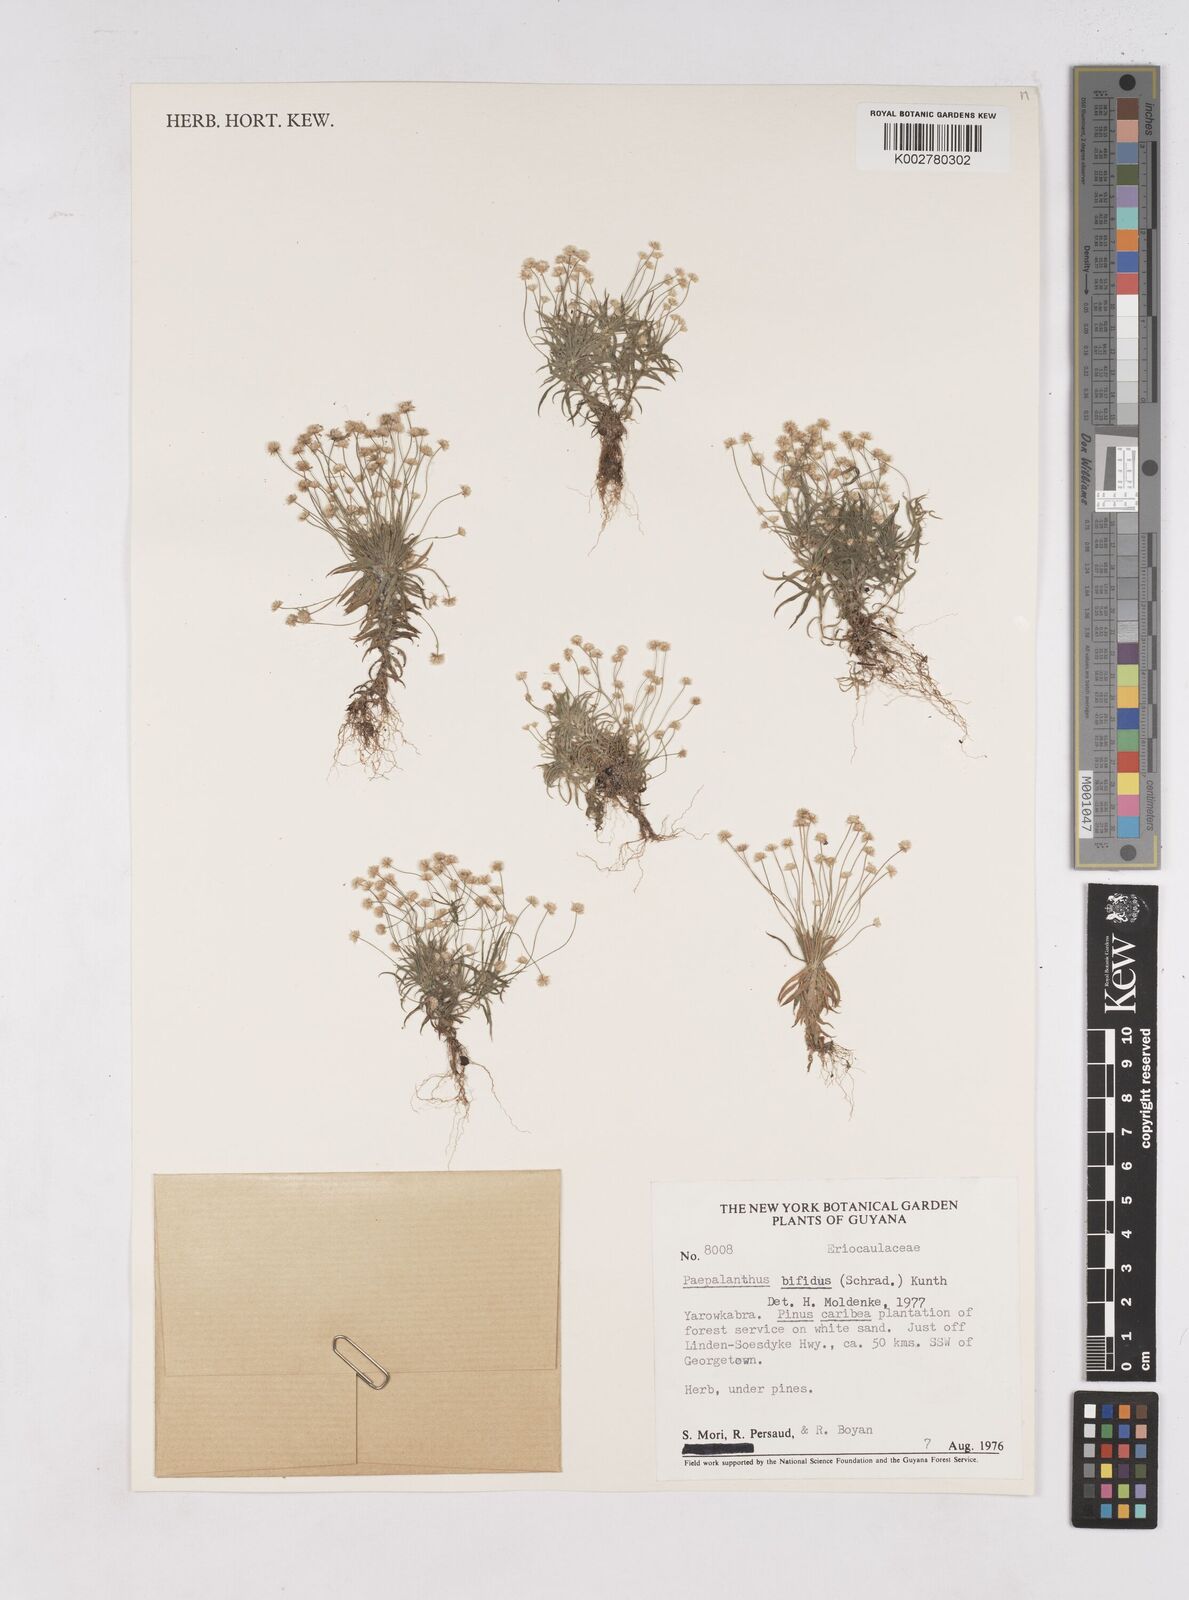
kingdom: Plantae
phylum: Tracheophyta
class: Liliopsida
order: Poales
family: Eriocaulaceae
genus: Paepalanthus
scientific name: Paepalanthus bifidus
